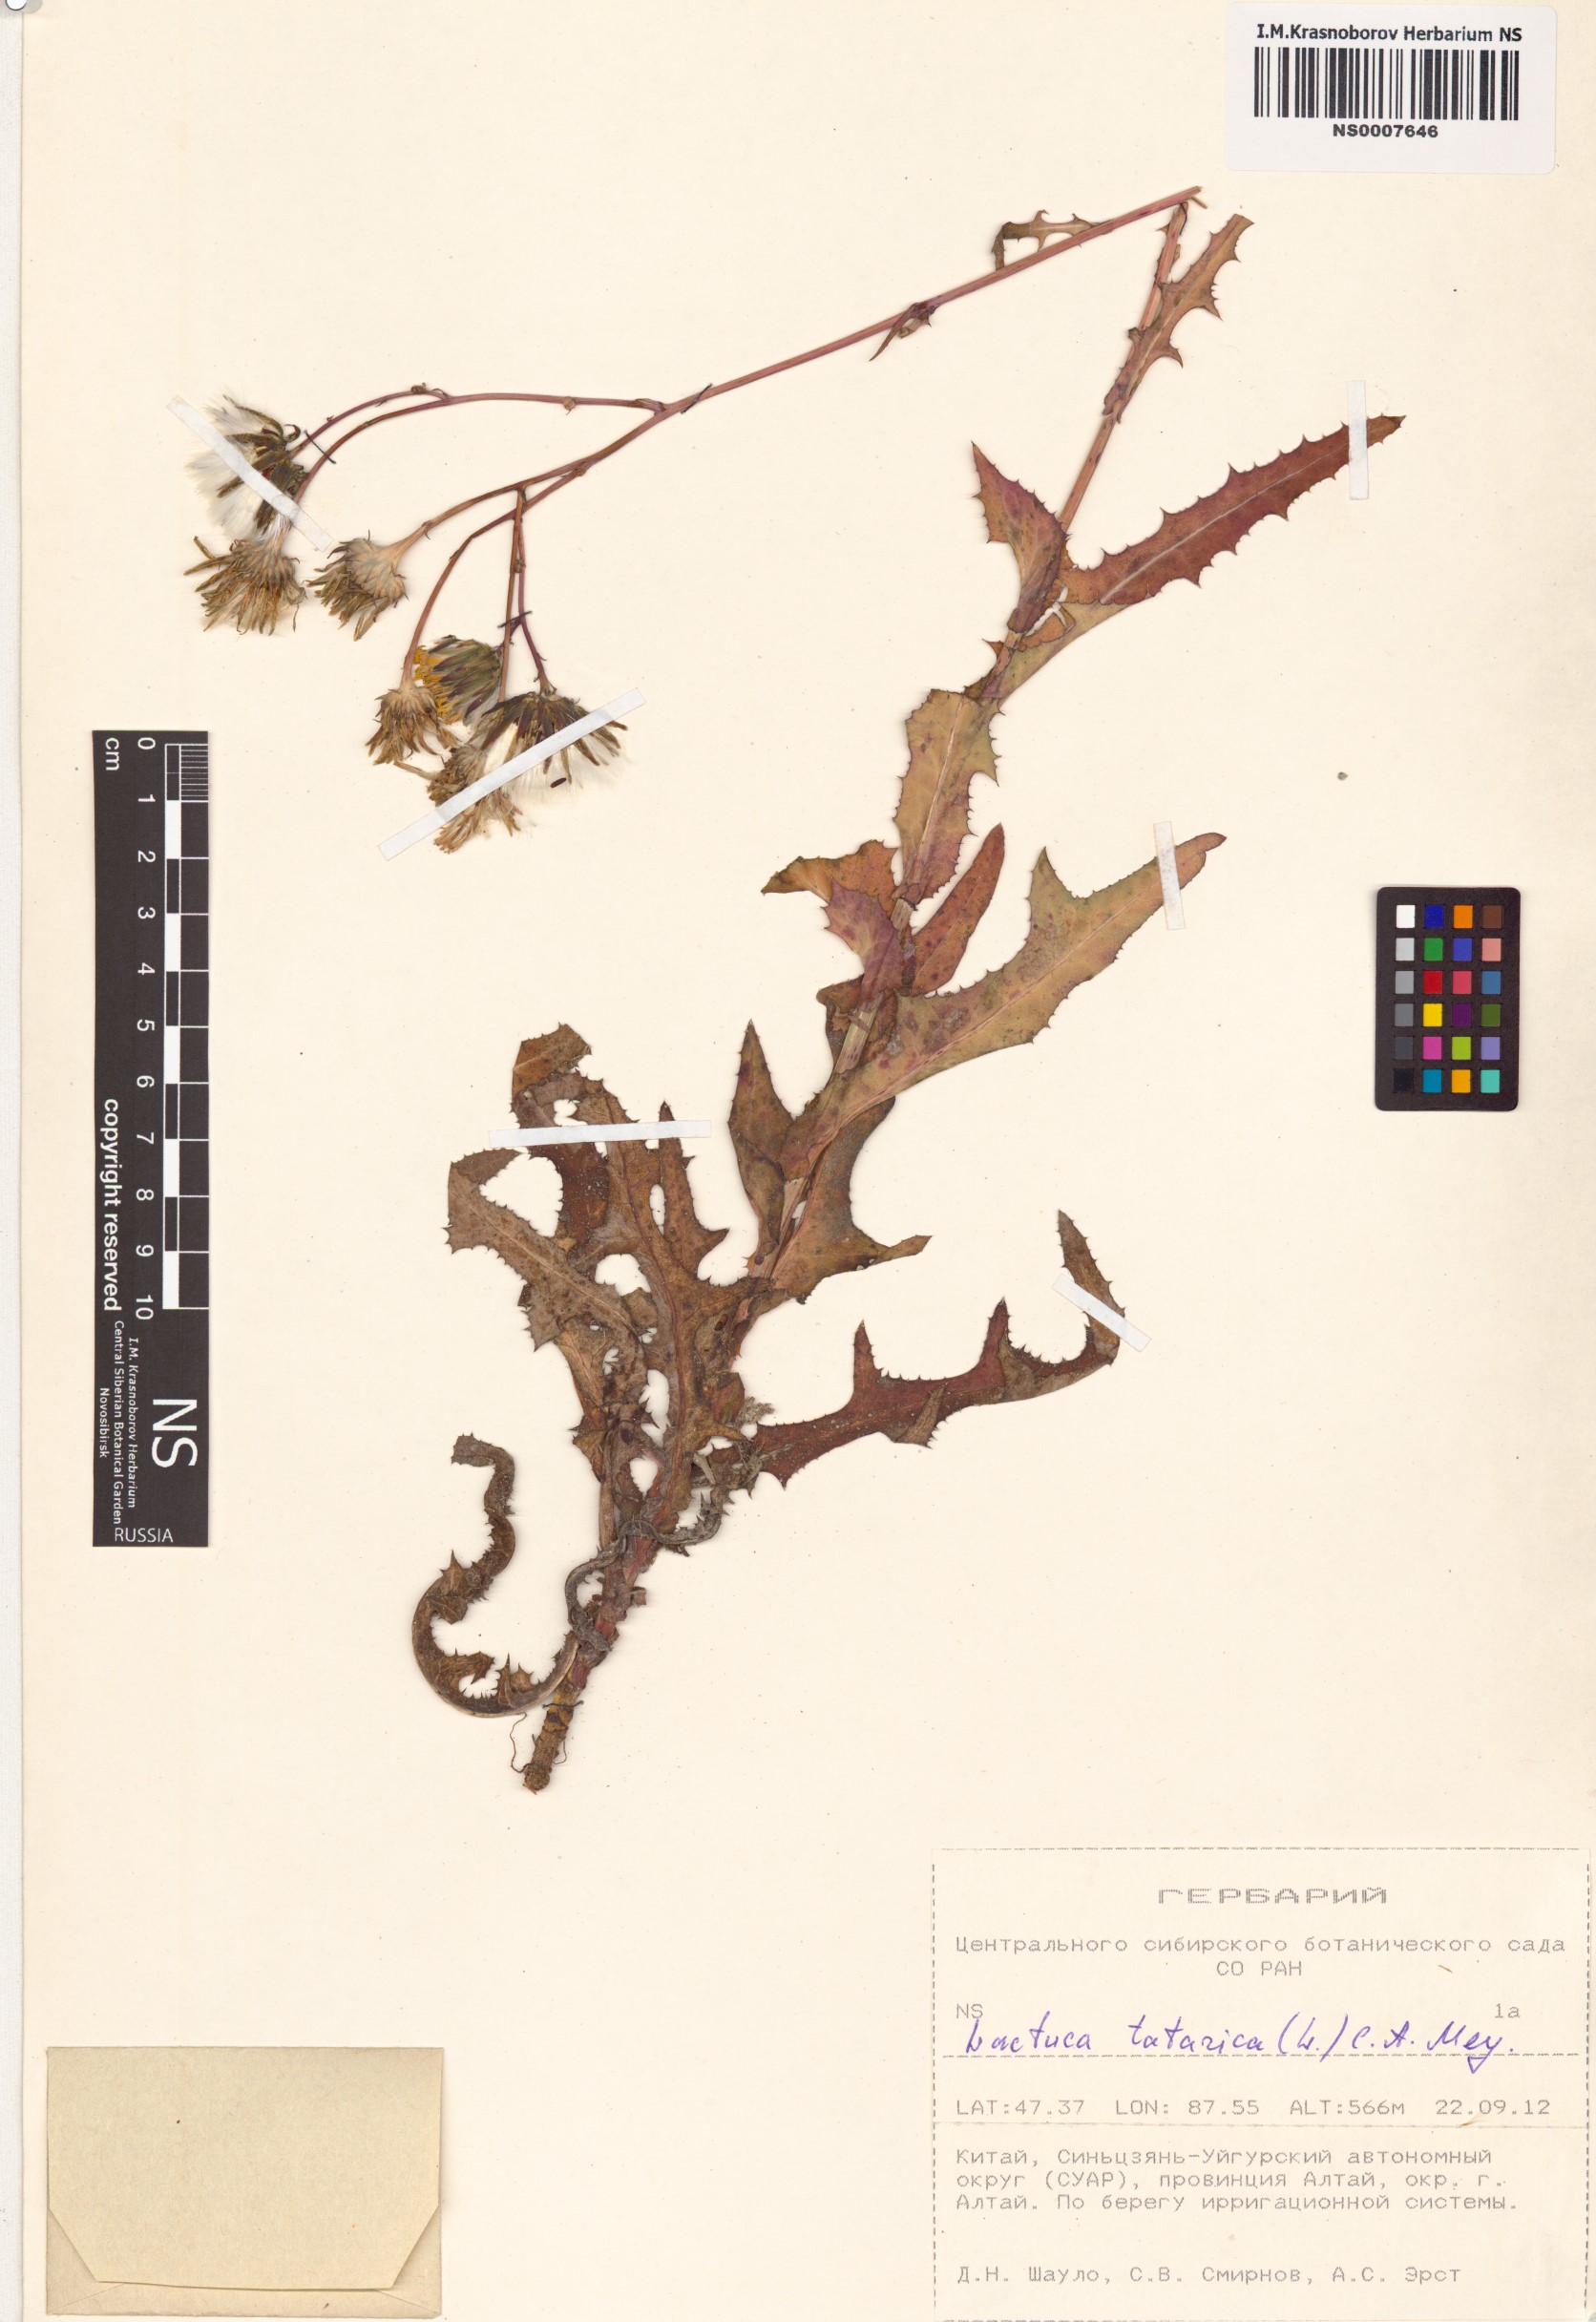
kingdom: Plantae
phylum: Tracheophyta
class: Magnoliopsida
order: Asterales
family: Asteraceae
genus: Lactuca
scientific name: Lactuca tatarica
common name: Blue lettuce
